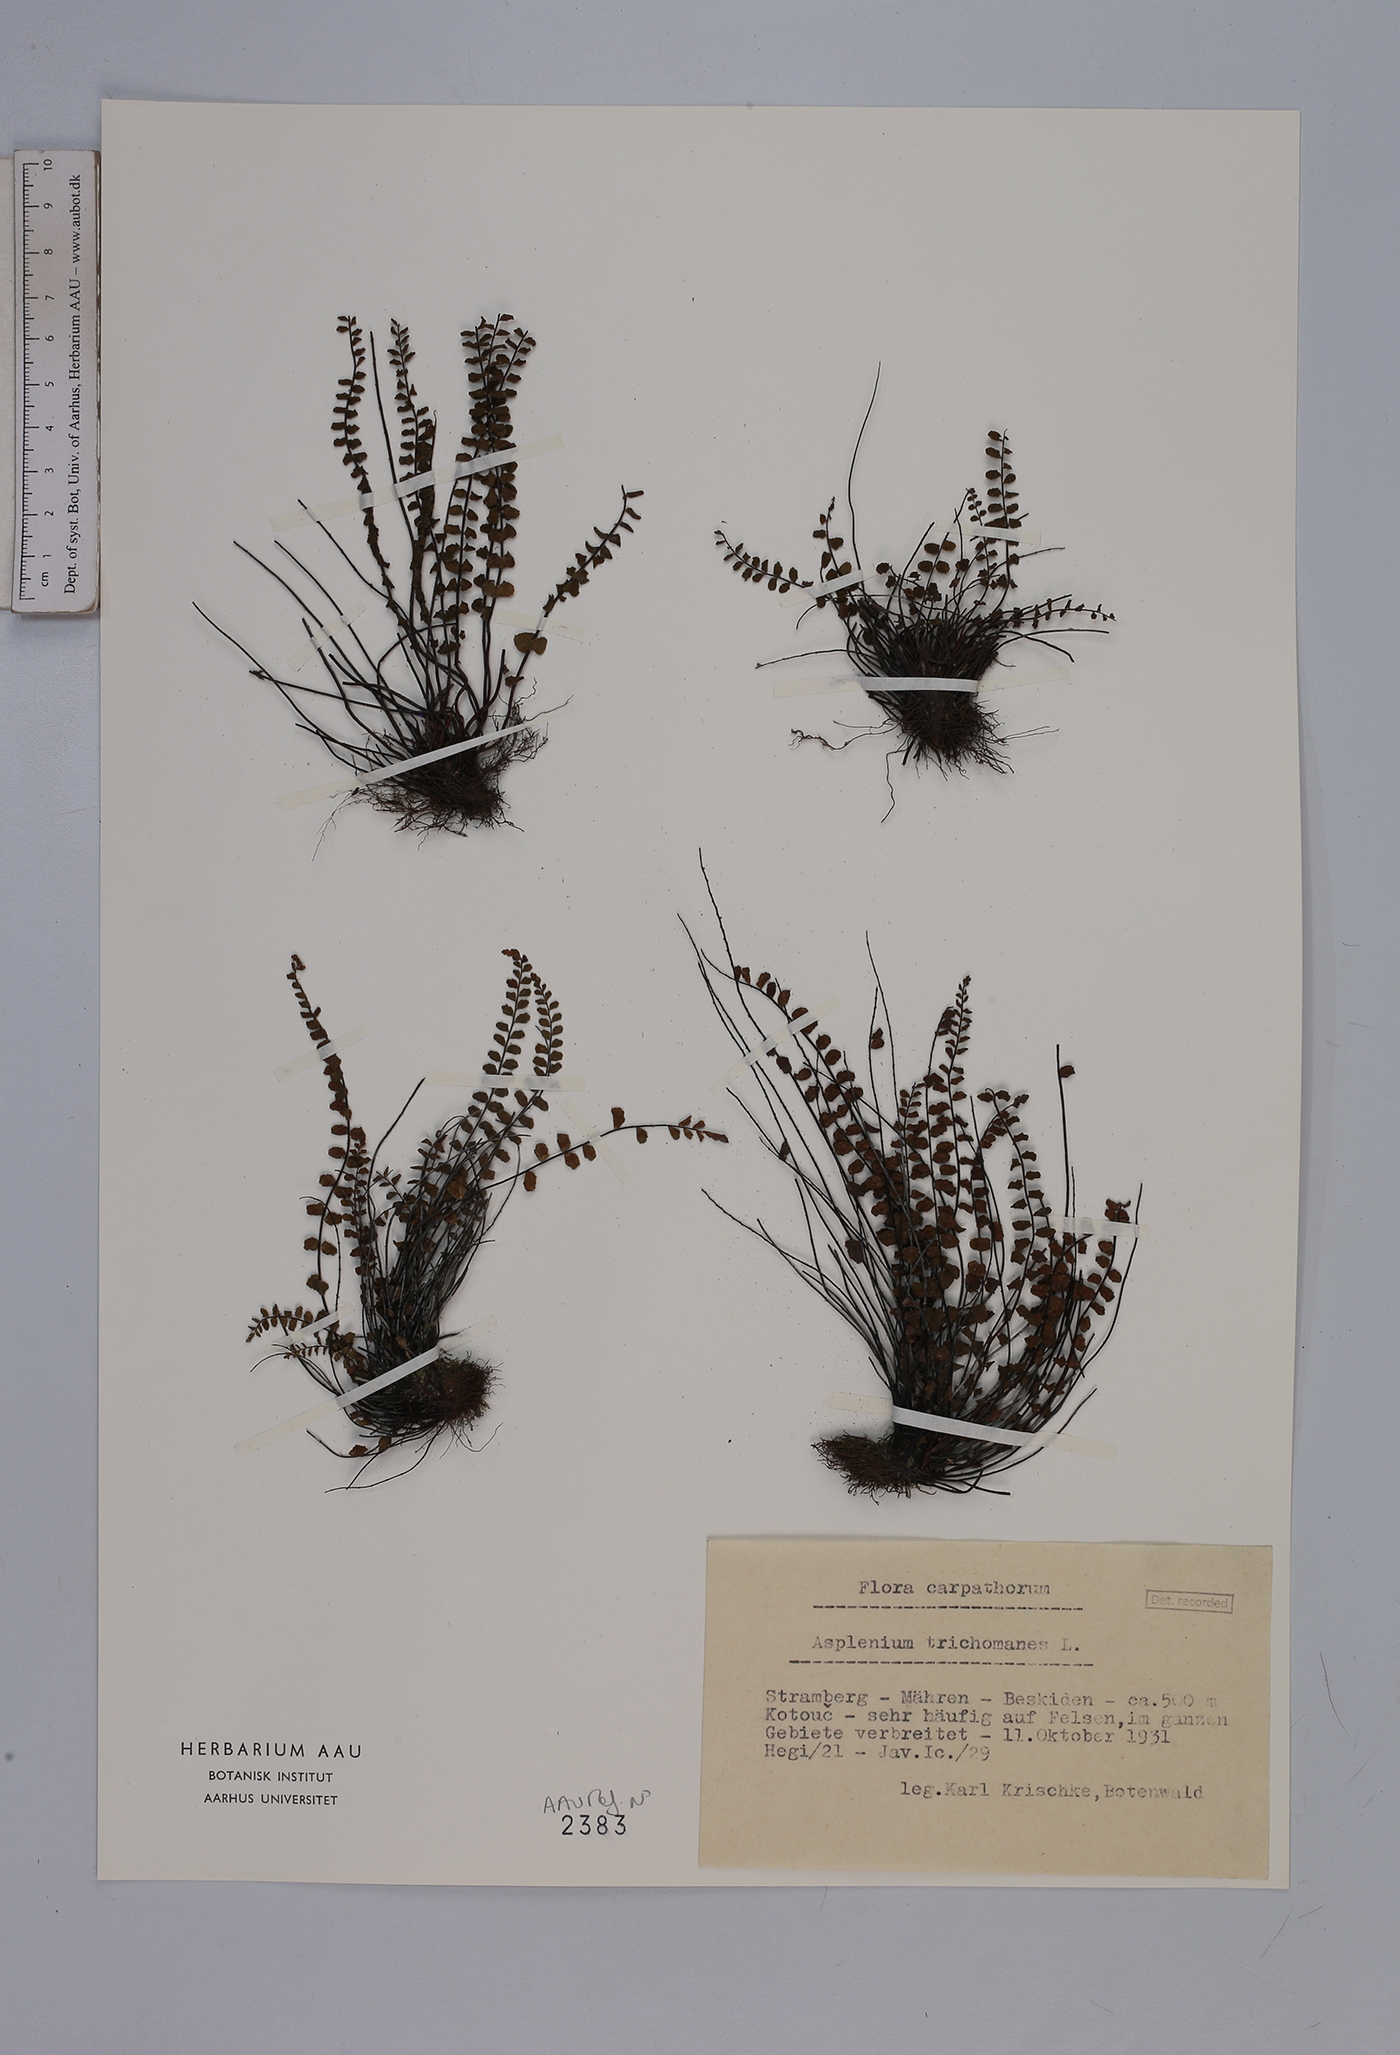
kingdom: Plantae
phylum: Tracheophyta
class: Polypodiopsida
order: Polypodiales
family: Aspleniaceae
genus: Asplenium
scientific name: Asplenium trichomanes
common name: Maidenhair spleenwort
